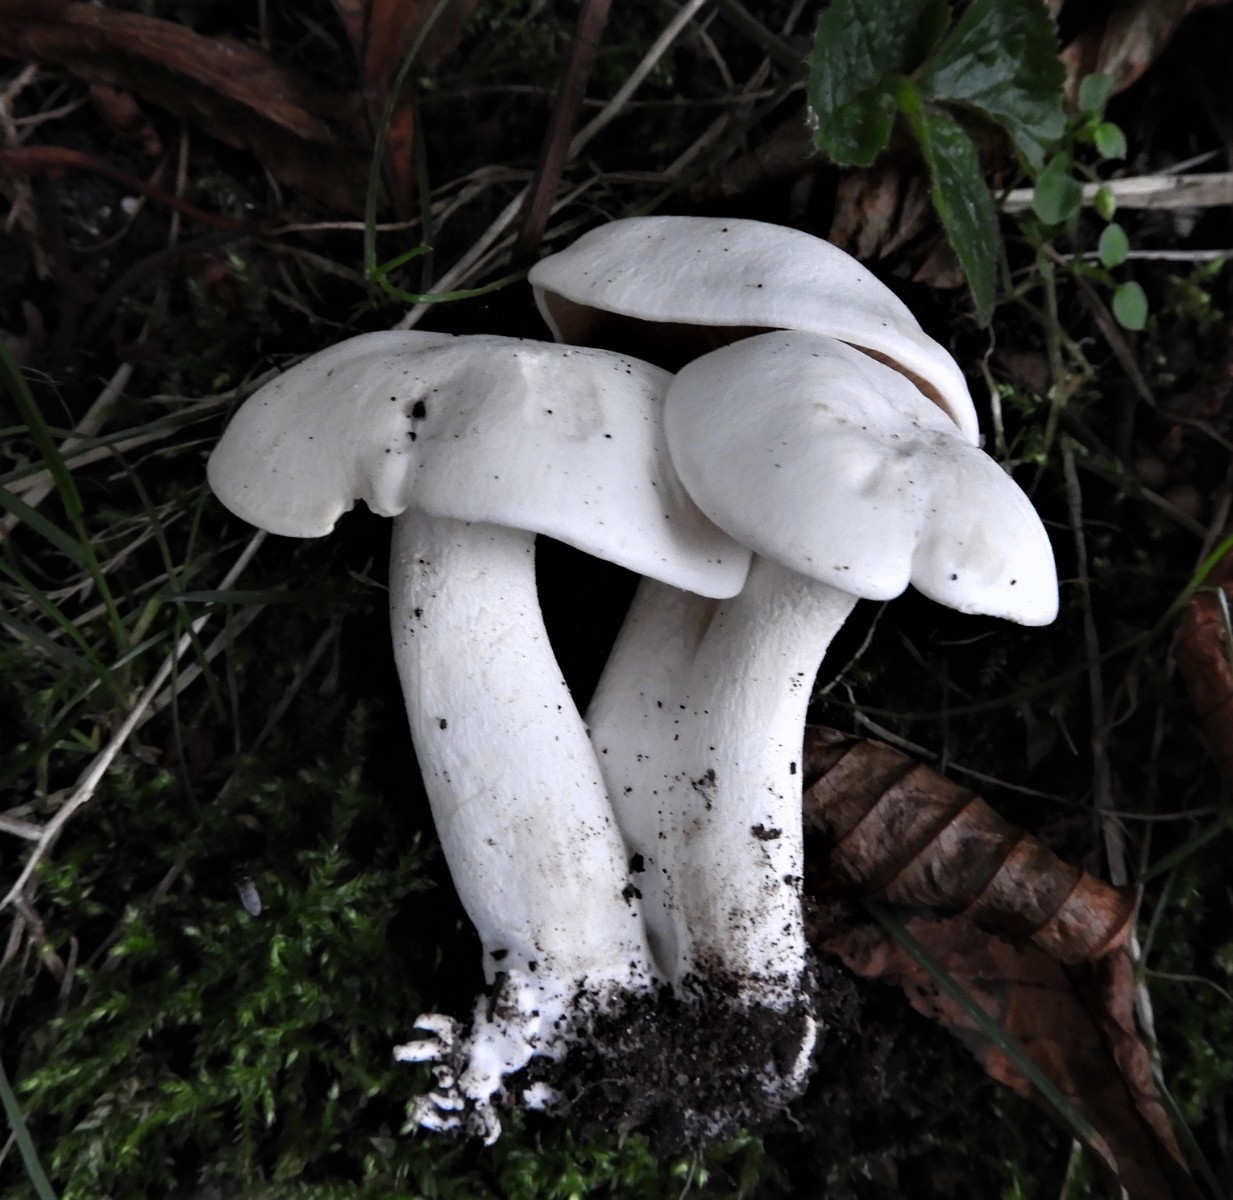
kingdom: Fungi
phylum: Basidiomycota
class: Agaricomycetes
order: Agaricales
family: Tricholomataceae
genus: Leucocybe
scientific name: Leucocybe connata
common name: knippe-tragthat
